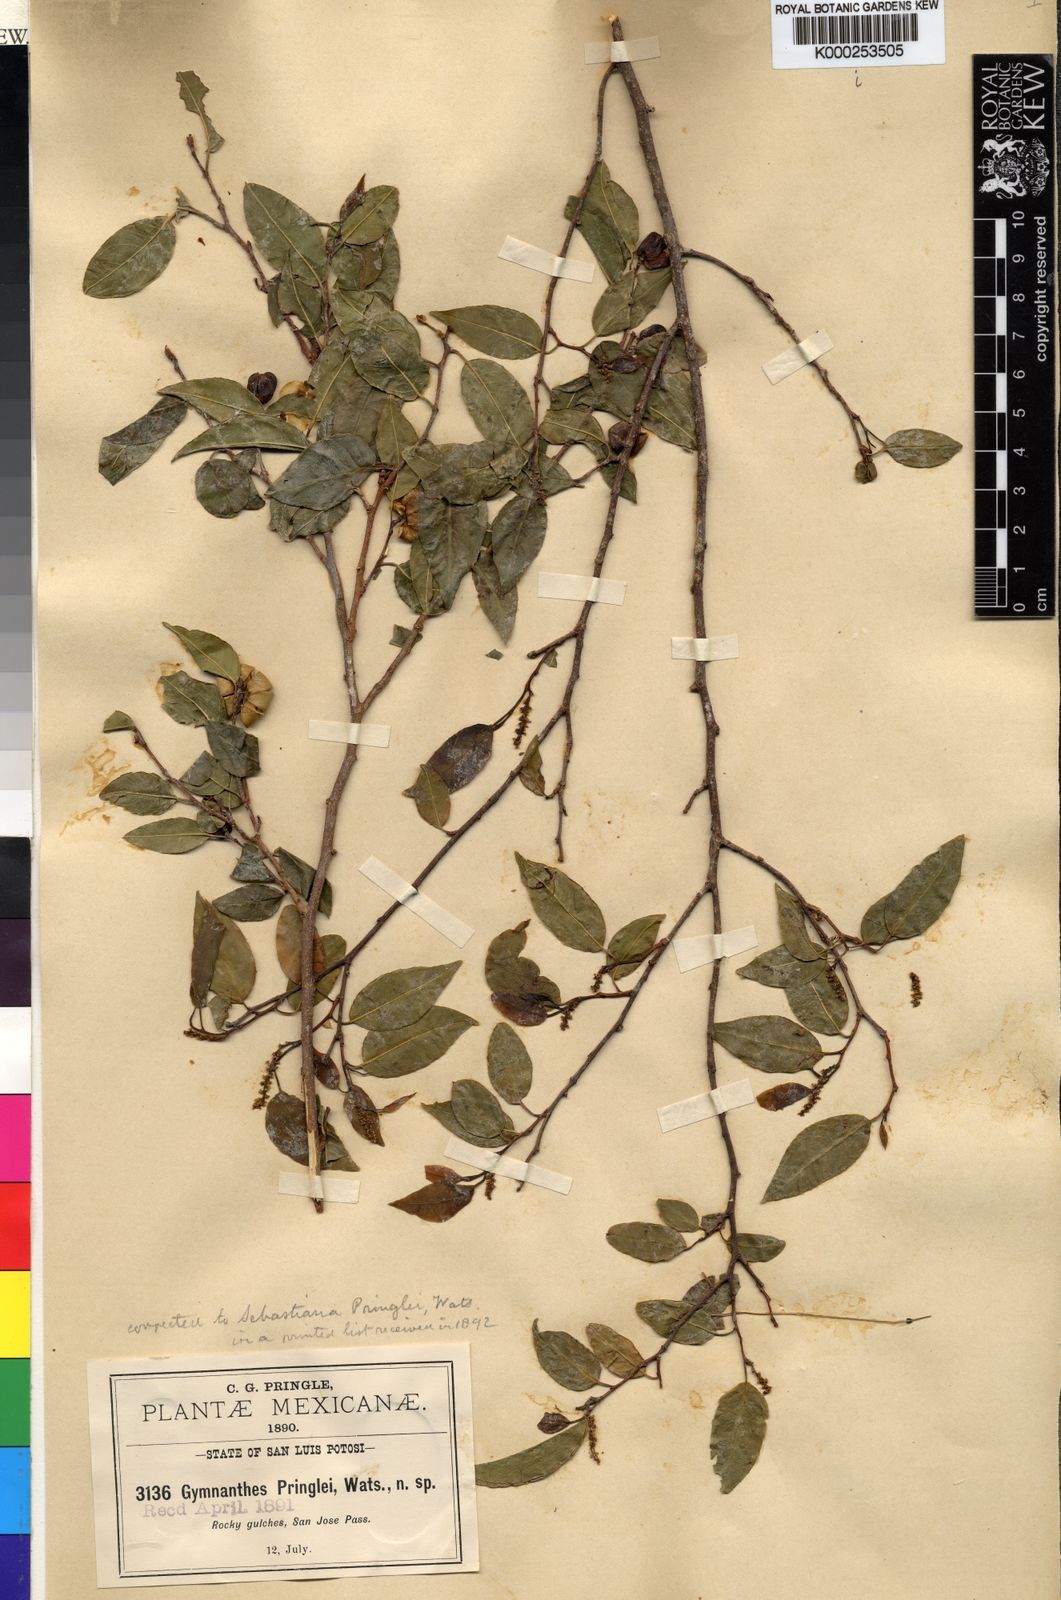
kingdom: Plantae
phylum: Tracheophyta
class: Magnoliopsida
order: Malpighiales
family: Euphorbiaceae
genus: Sebastiania
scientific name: Sebastiania
